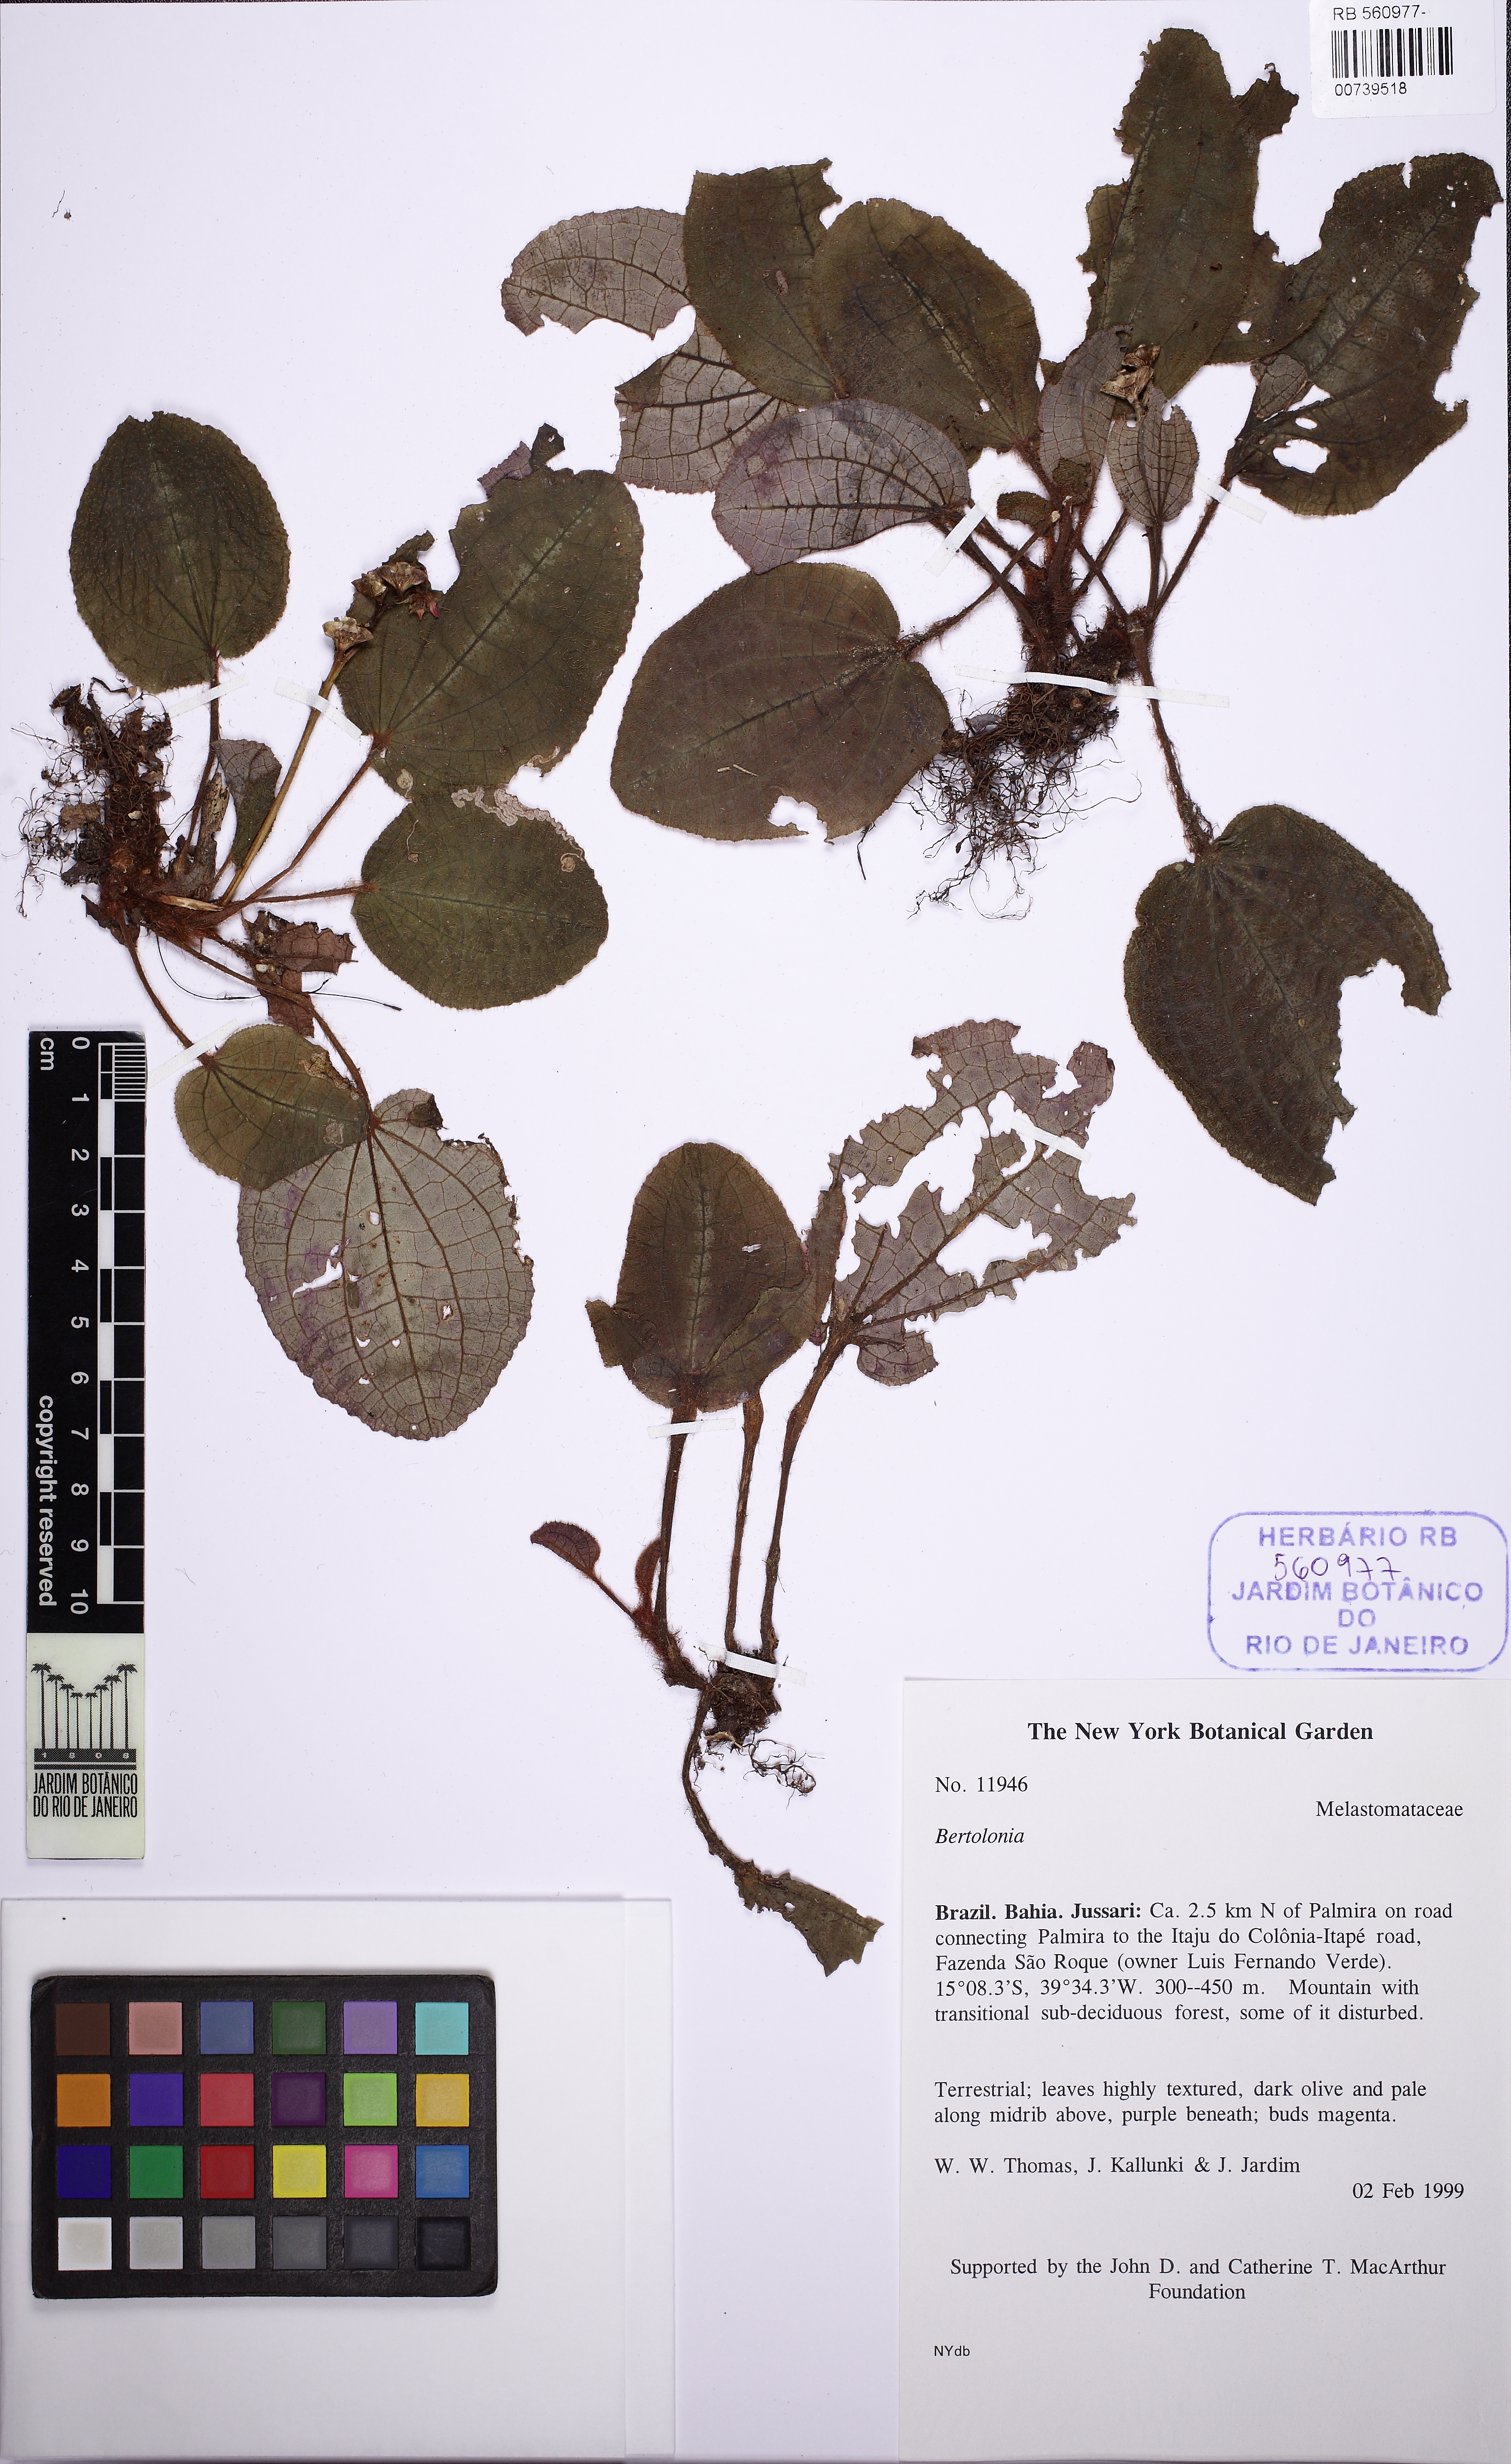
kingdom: Plantae
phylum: Tracheophyta
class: Magnoliopsida
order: Myrtales
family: Melastomataceae
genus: Bertolonia
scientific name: Bertolonia
